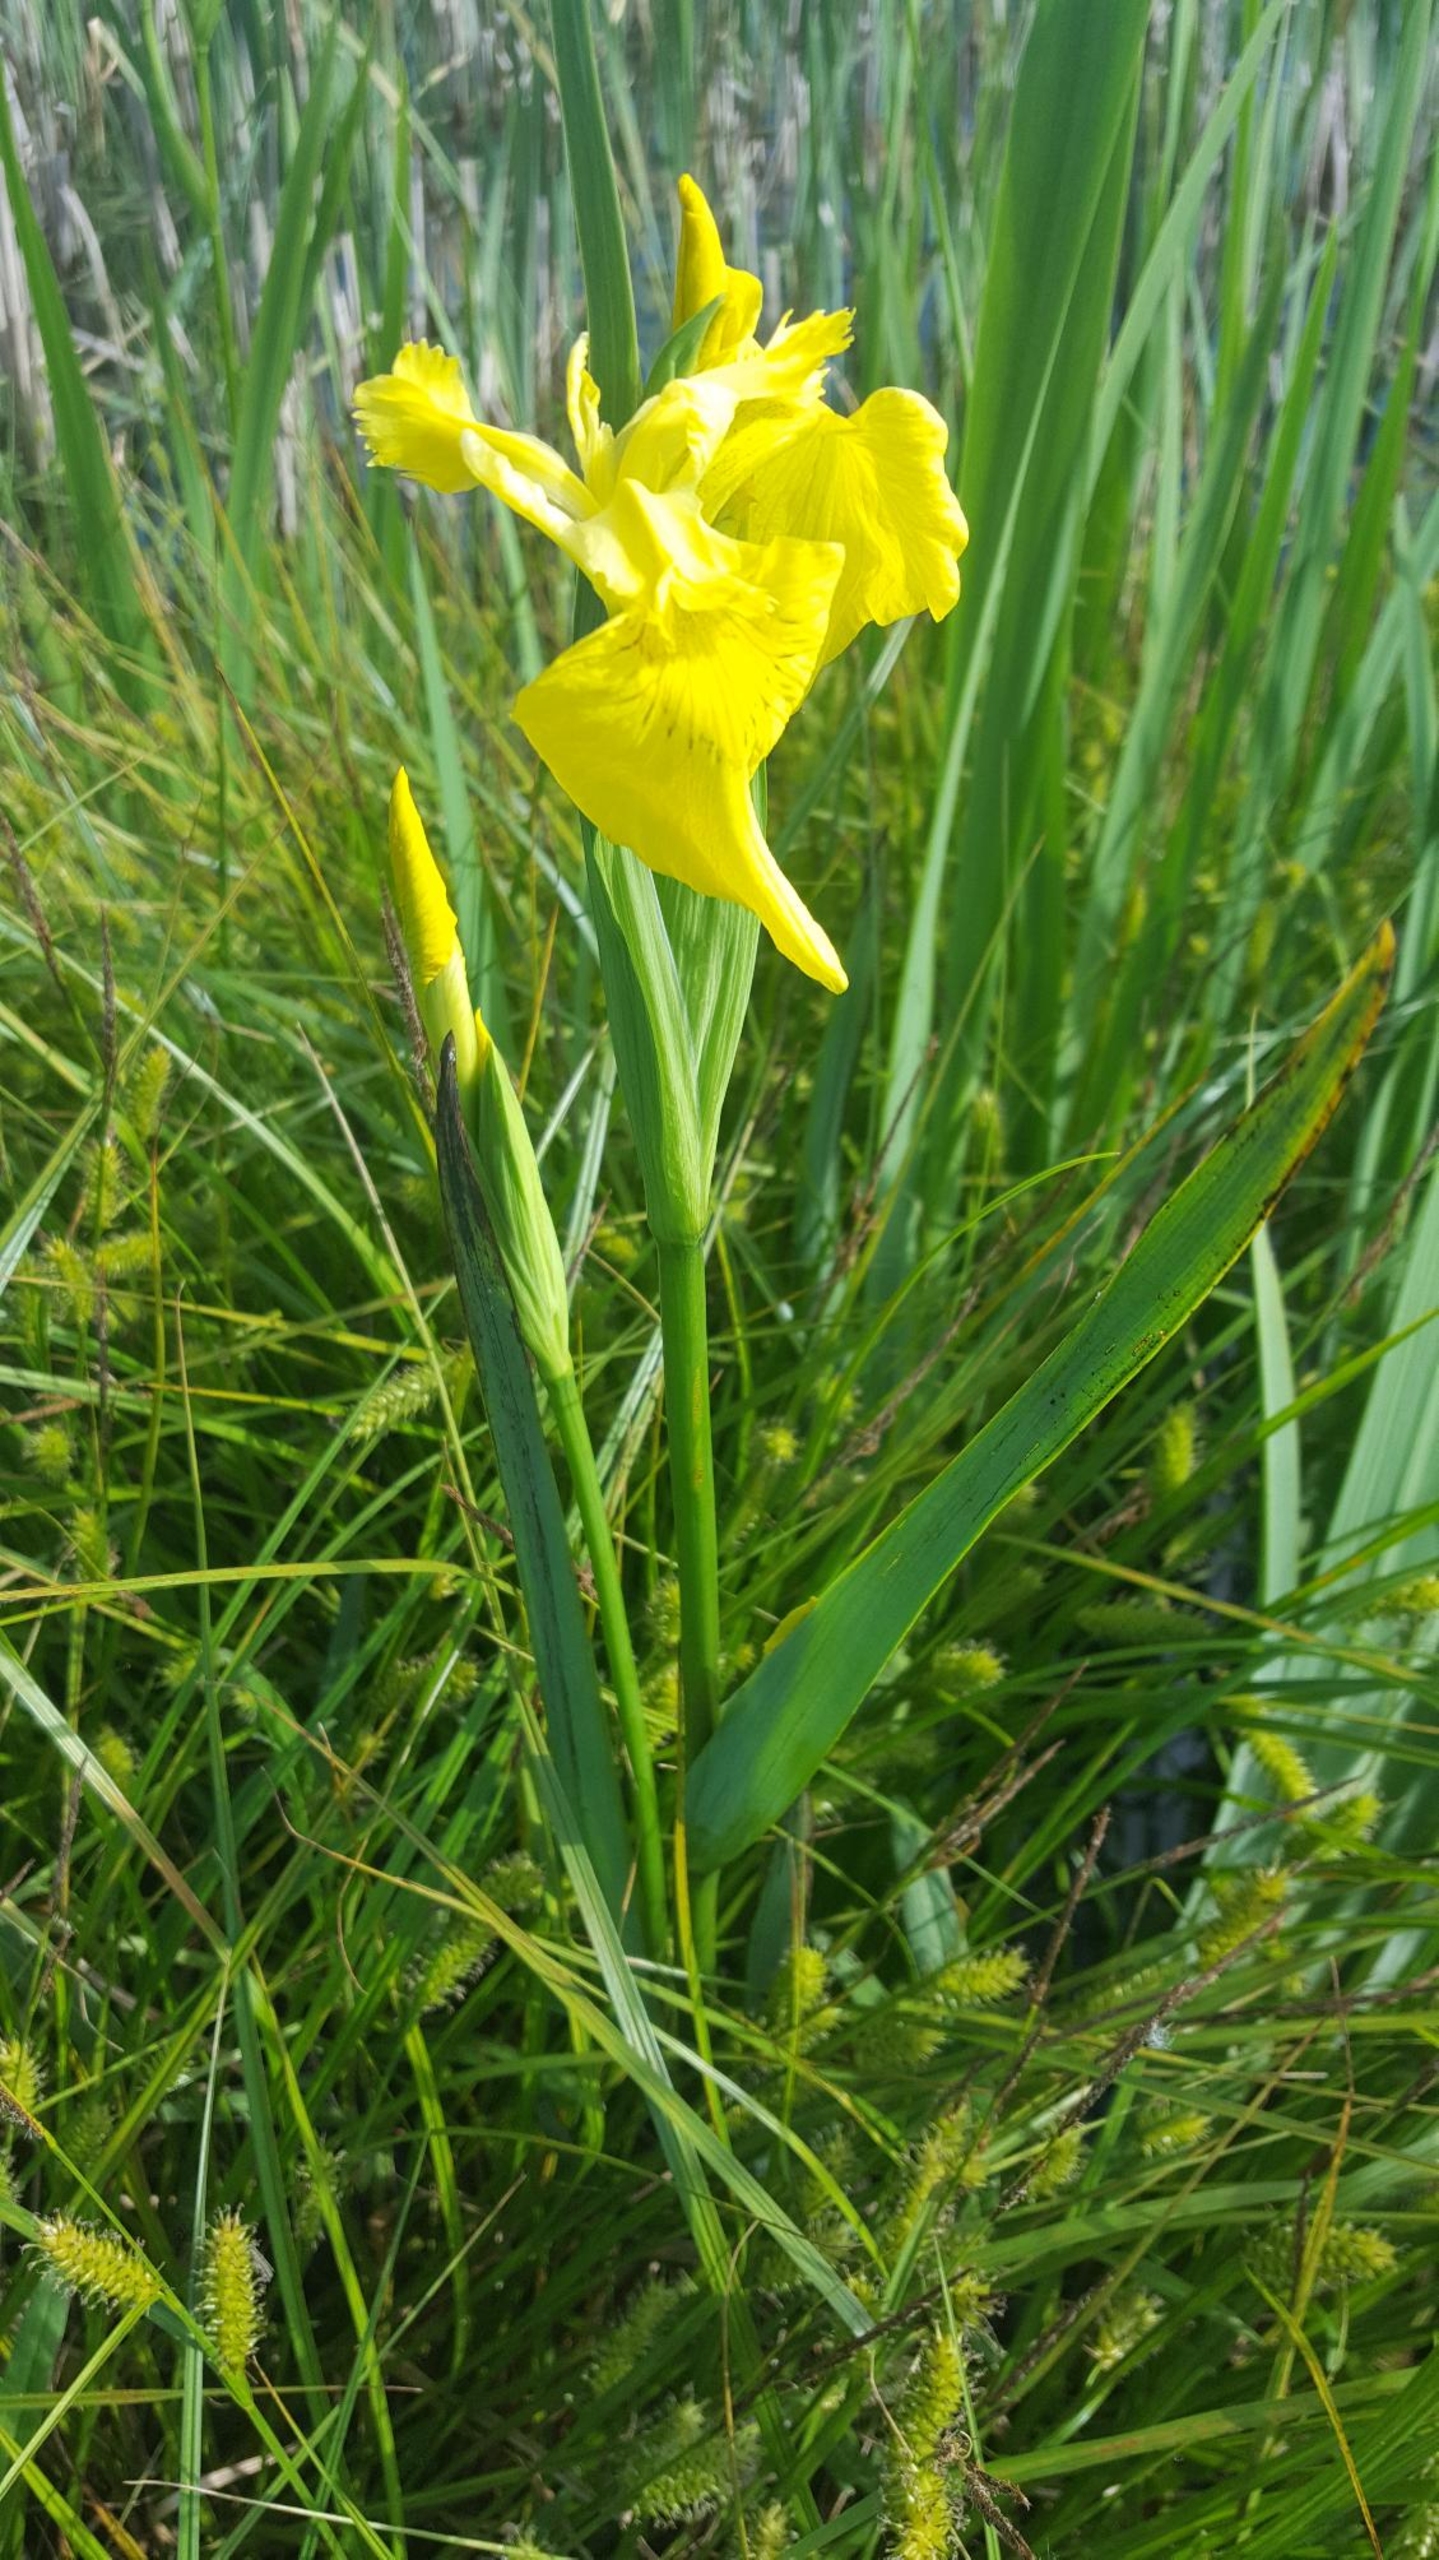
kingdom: Plantae
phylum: Tracheophyta
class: Liliopsida
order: Asparagales
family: Iridaceae
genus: Iris
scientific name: Iris pseudacorus
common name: Gul iris
